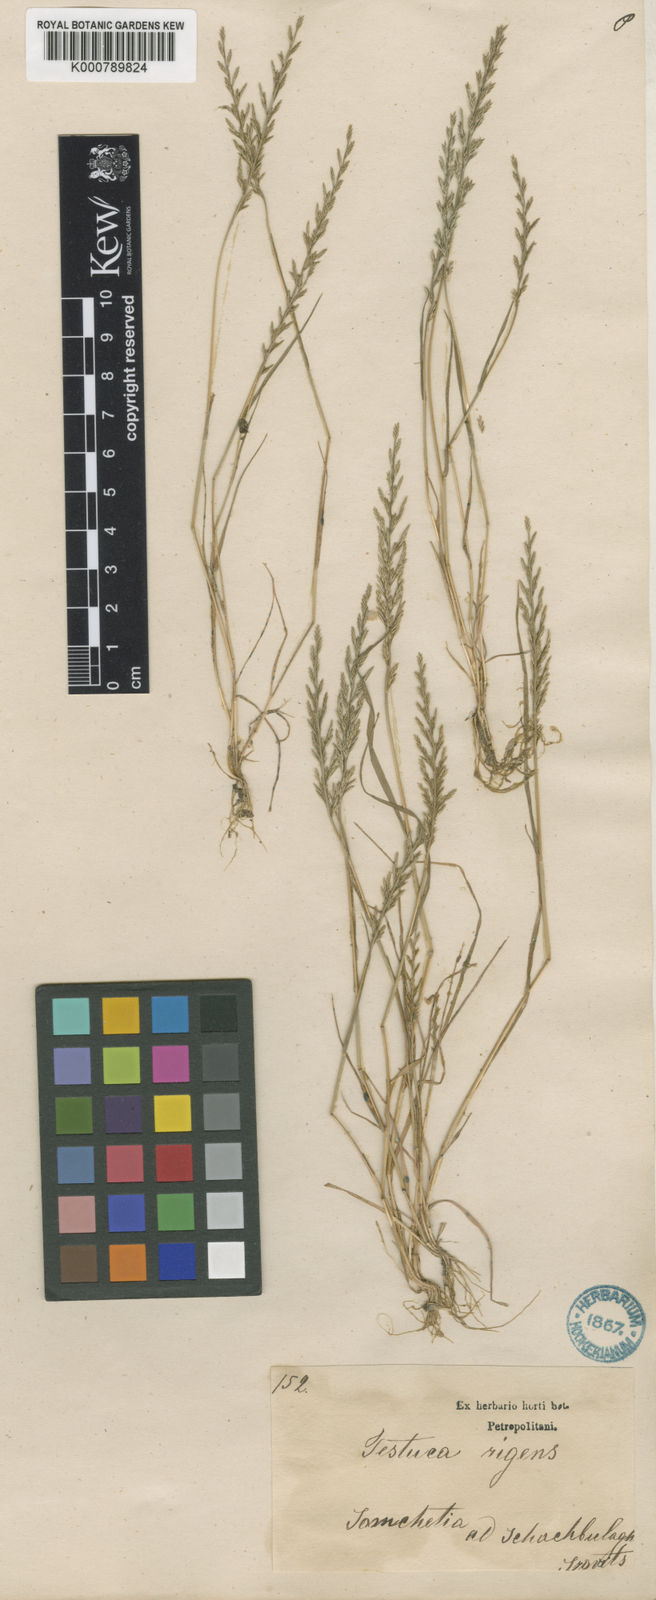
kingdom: Plantae
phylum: Tracheophyta
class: Liliopsida
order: Poales
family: Poaceae
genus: Catapodium
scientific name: Catapodium rigidum
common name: Fern-grass
